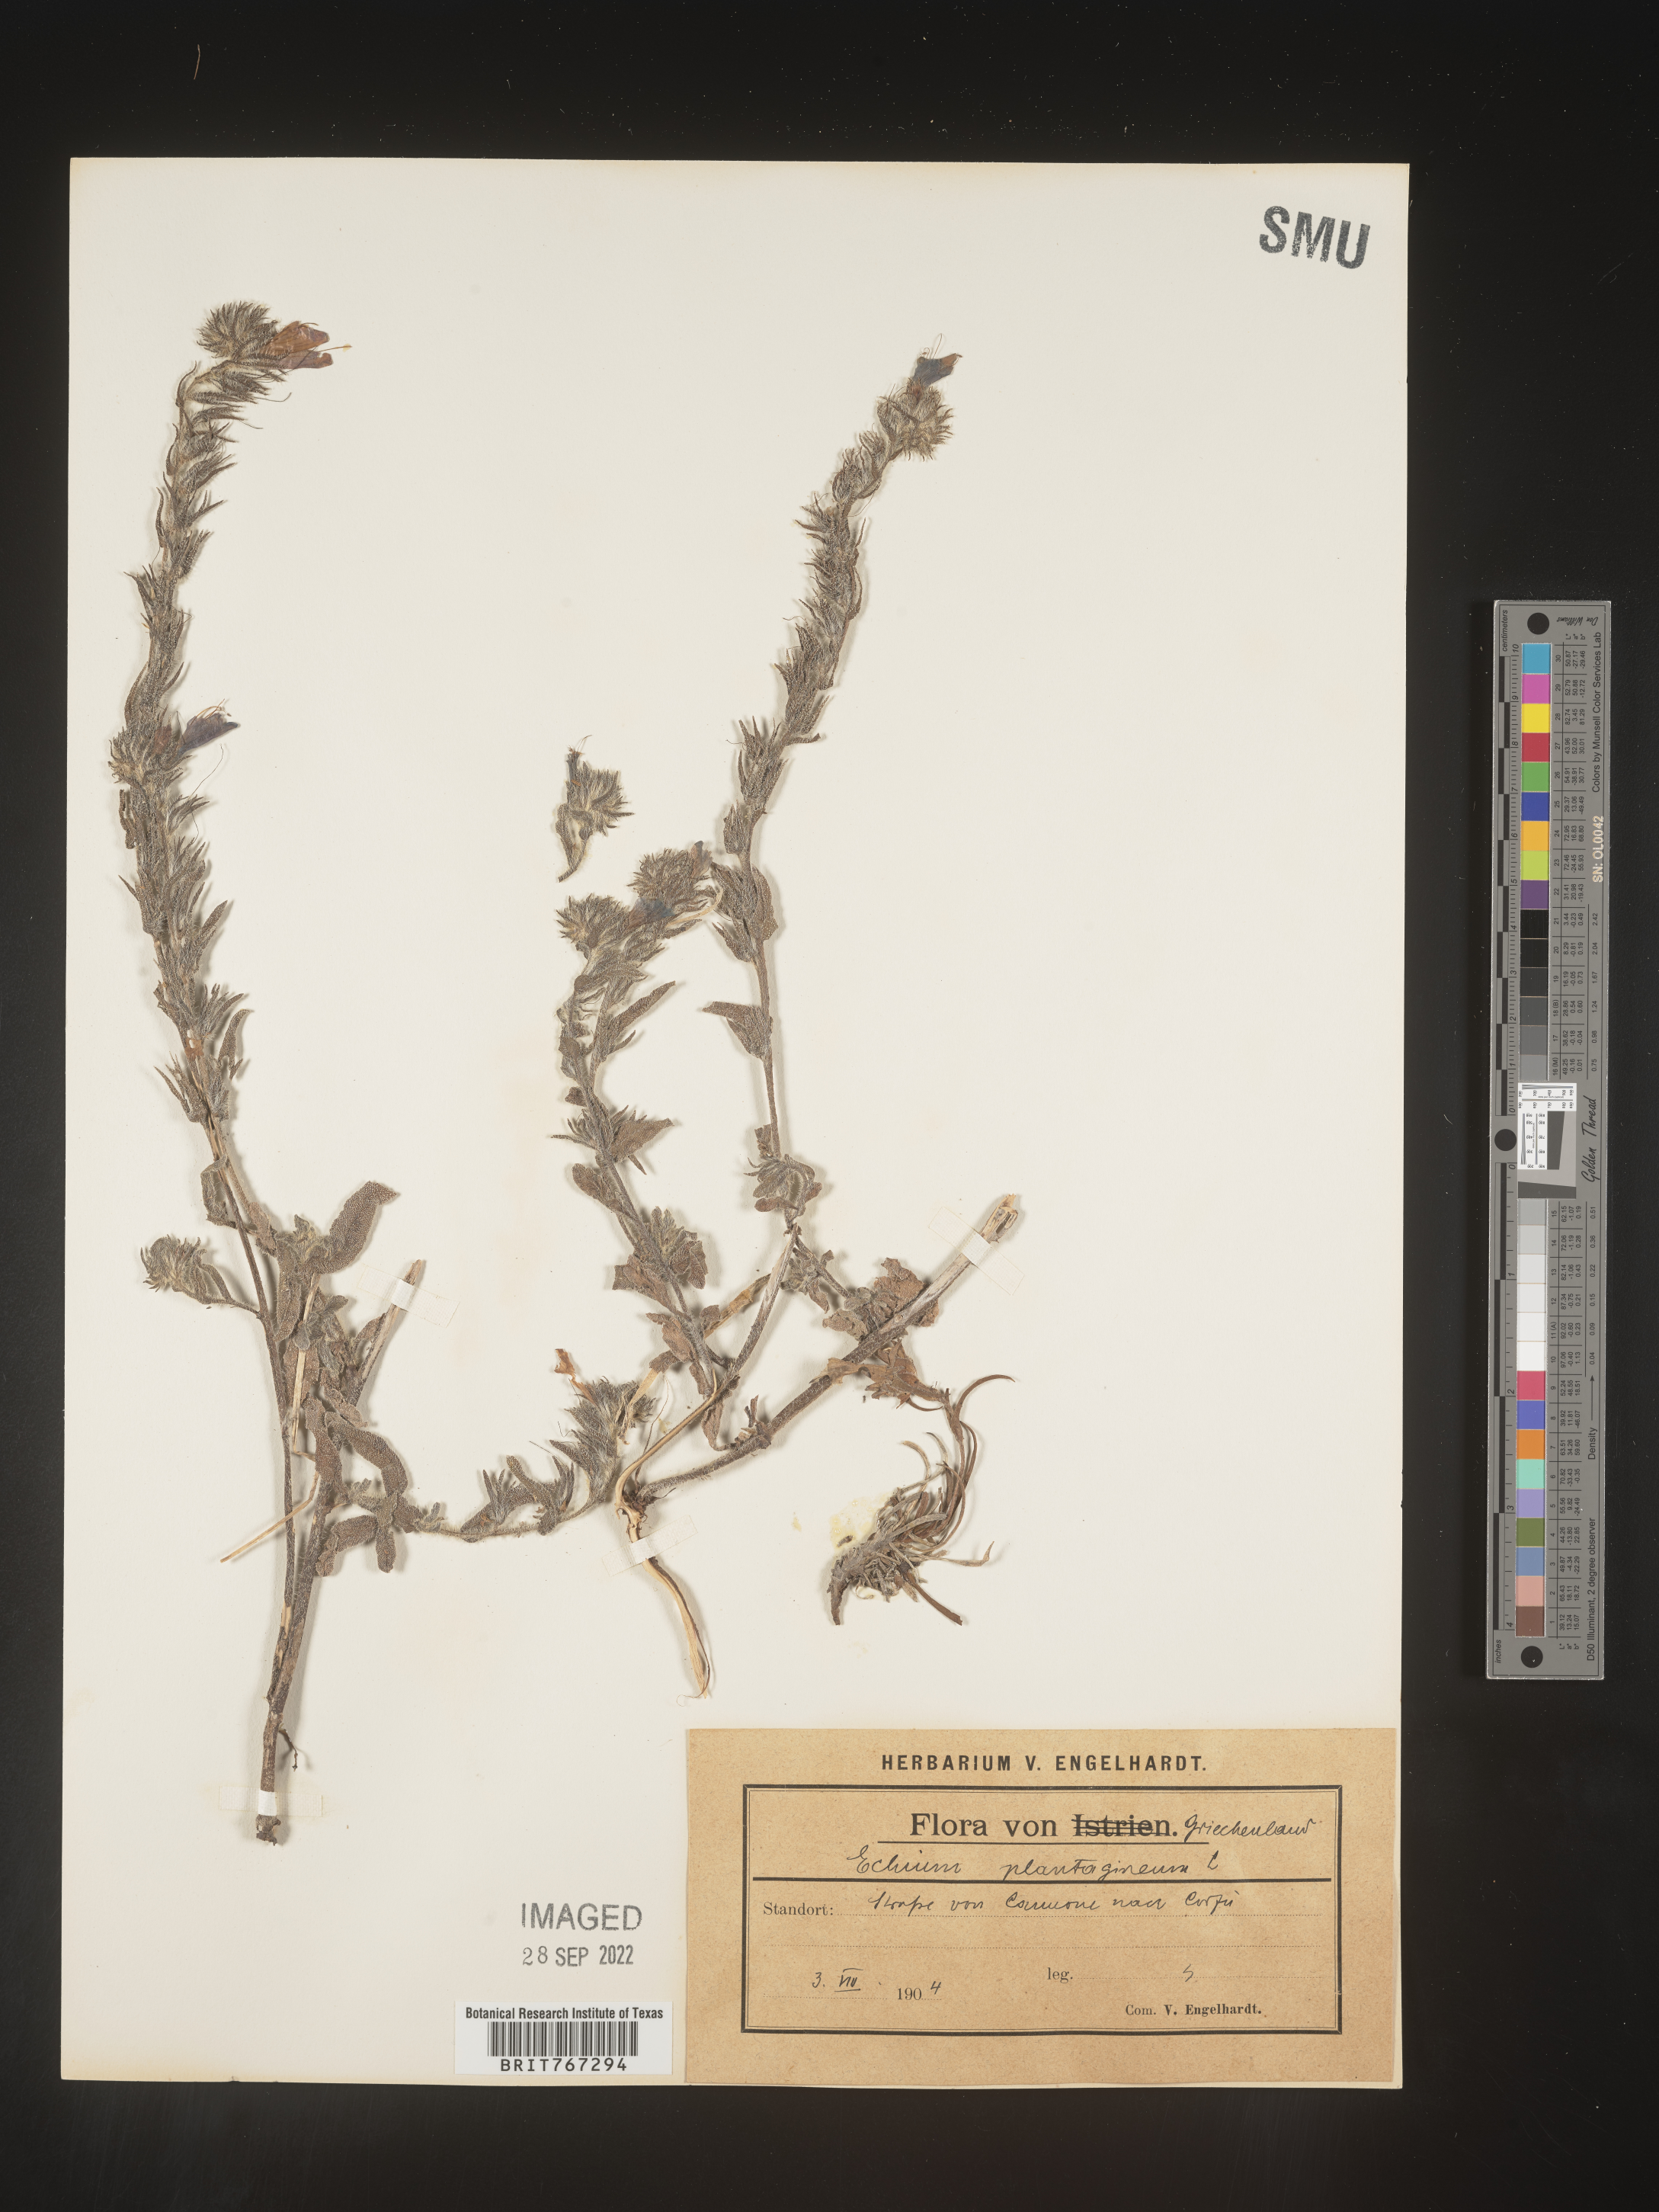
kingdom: Plantae
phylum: Tracheophyta
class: Magnoliopsida
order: Boraginales
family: Boraginaceae
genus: Echium
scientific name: Echium
